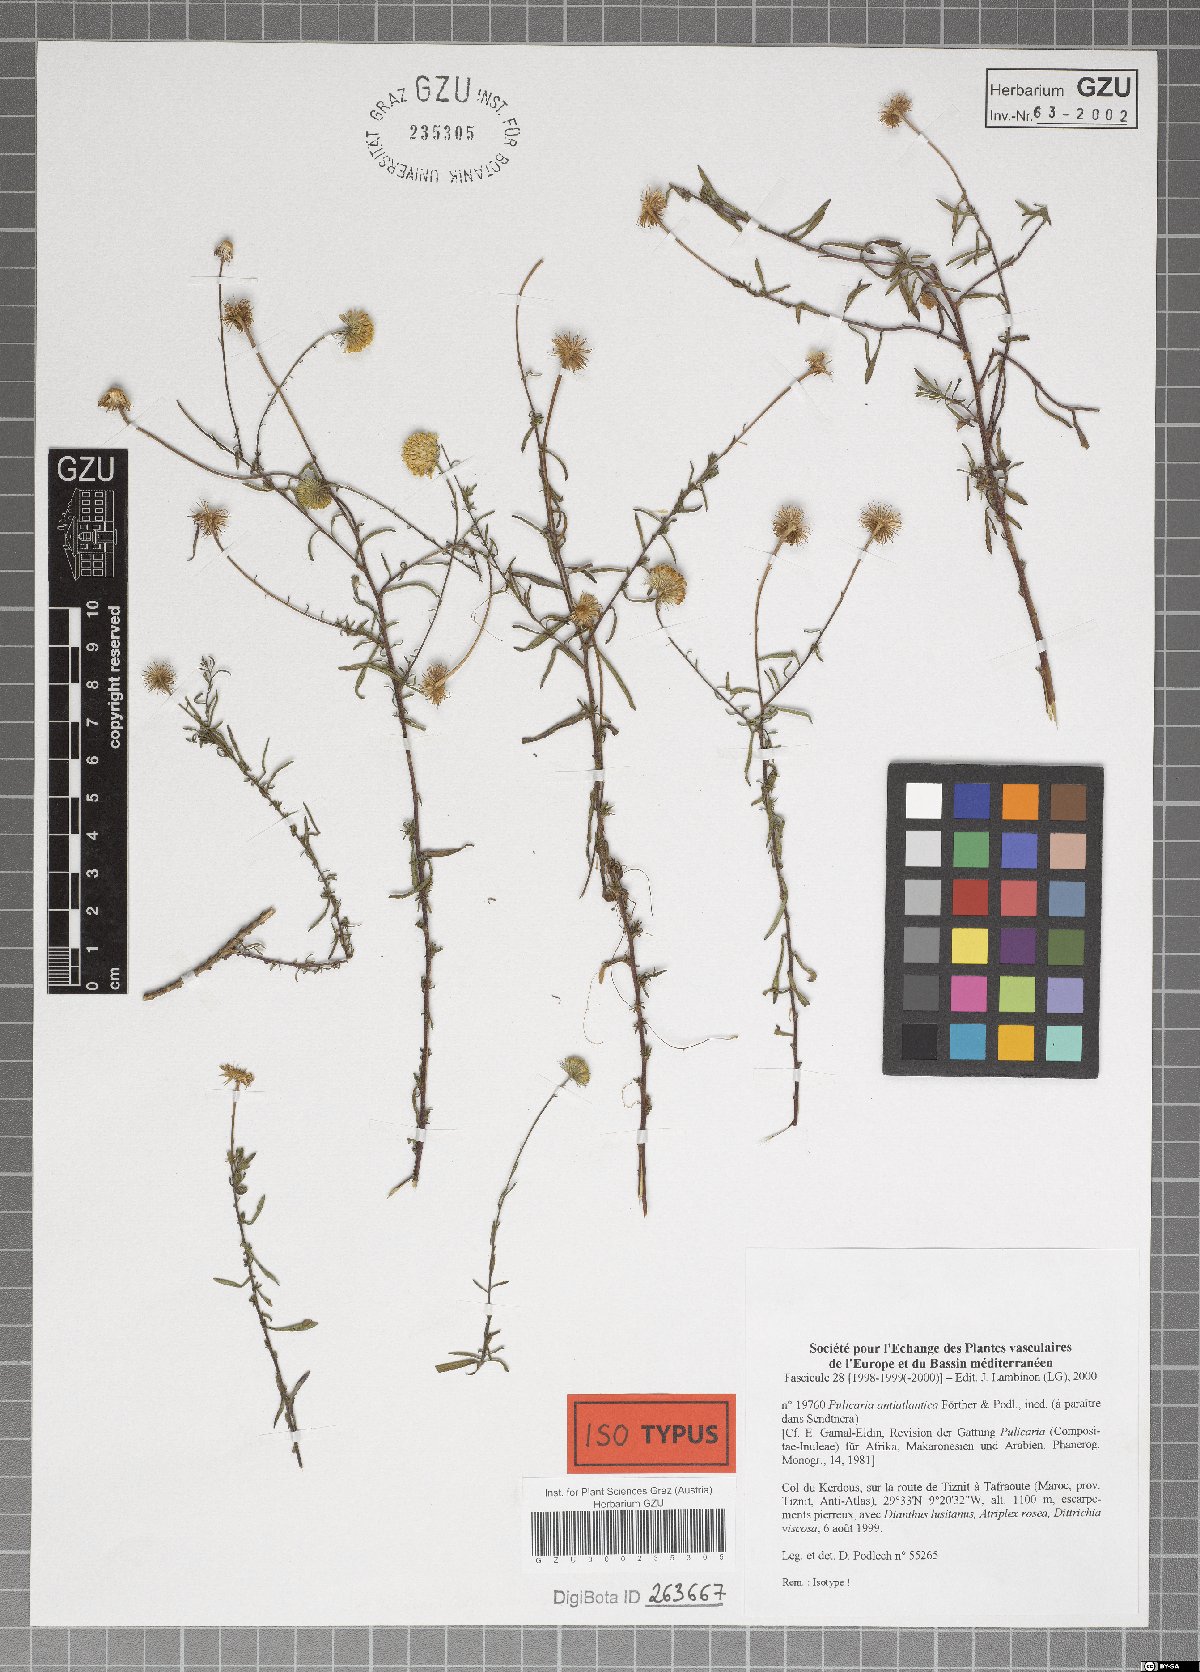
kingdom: Plantae
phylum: Tracheophyta
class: Magnoliopsida
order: Asterales
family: Asteraceae
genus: Pulicaria
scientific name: Pulicaria glandulosa
